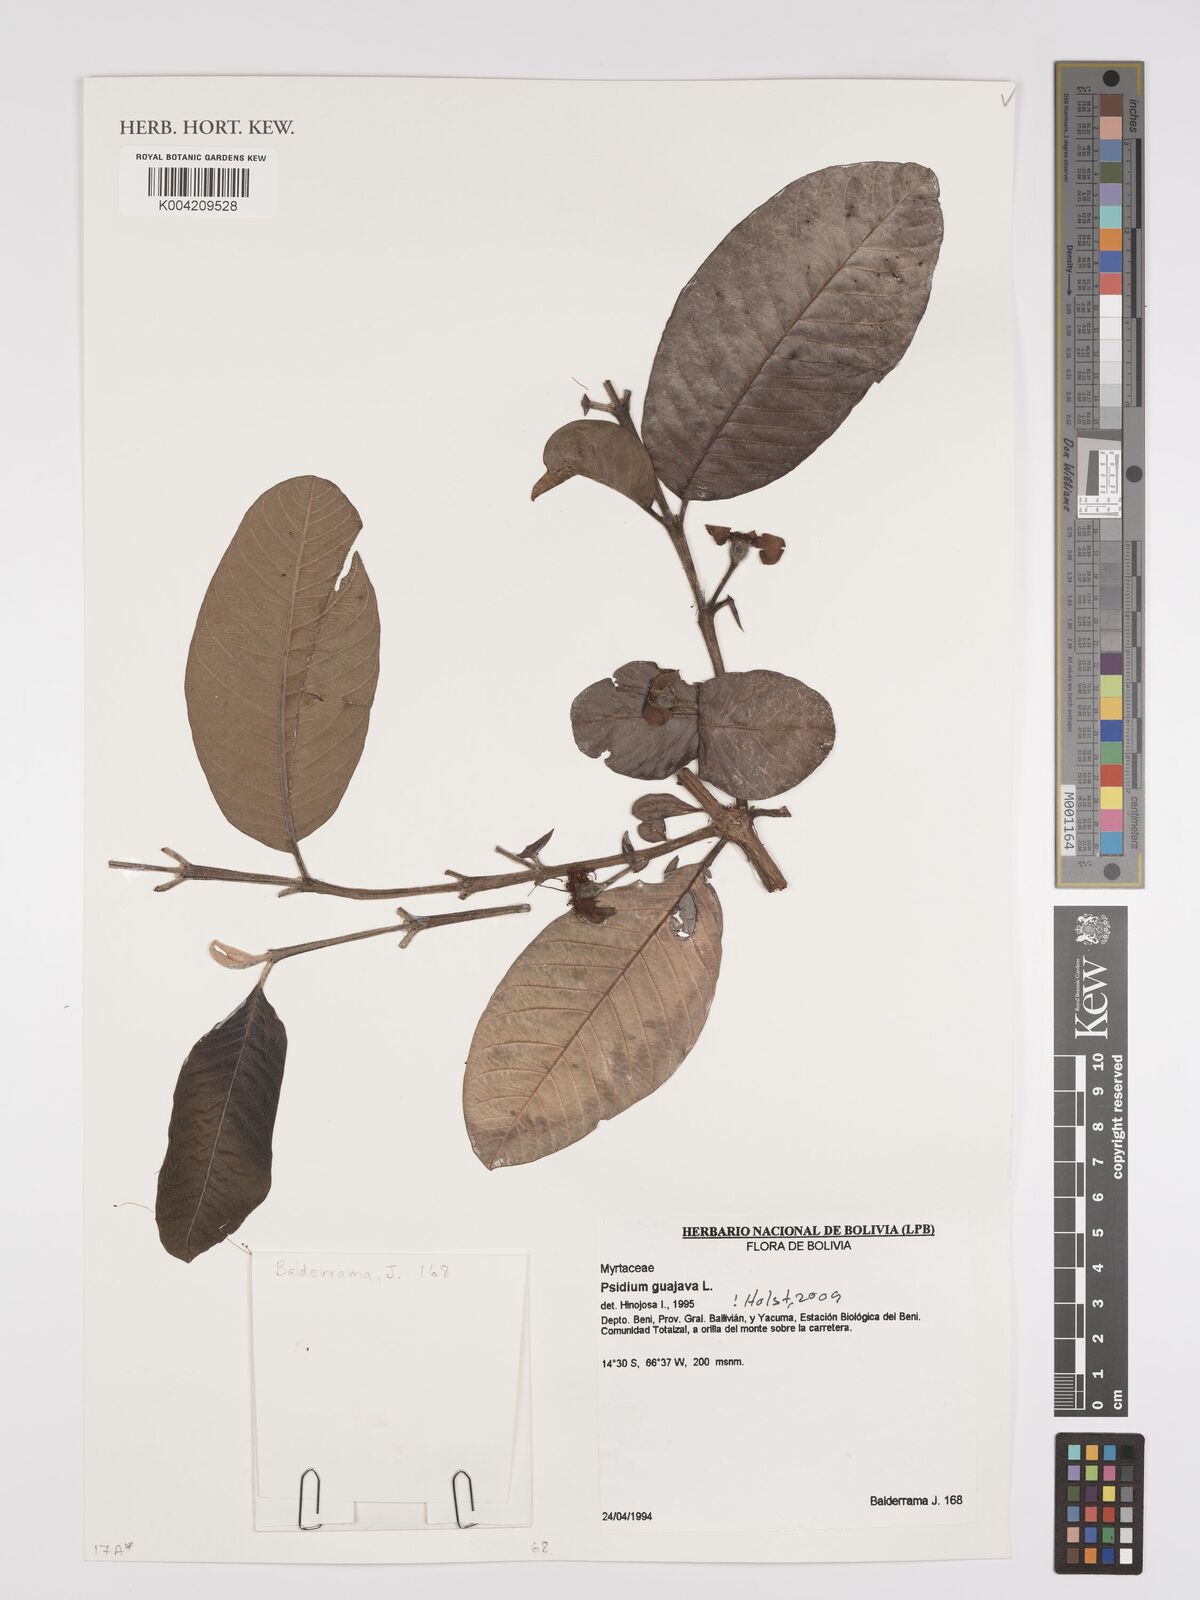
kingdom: Plantae
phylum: Tracheophyta
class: Magnoliopsida
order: Myrtales
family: Myrtaceae
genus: Psidium
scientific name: Psidium guajava
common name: Guava
